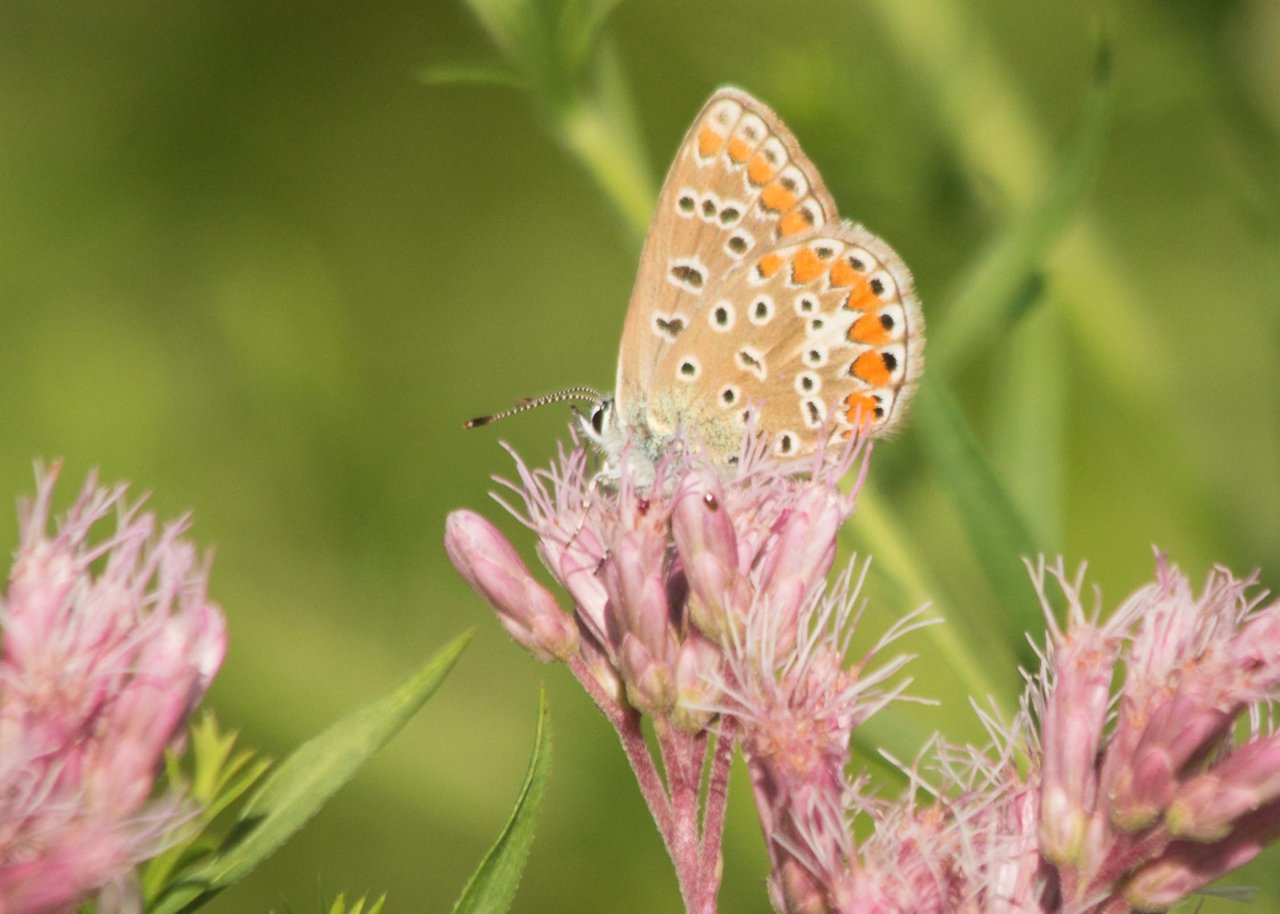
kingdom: Animalia
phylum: Arthropoda
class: Insecta
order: Lepidoptera
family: Lycaenidae
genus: Polyommatus
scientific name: Polyommatus icarus
